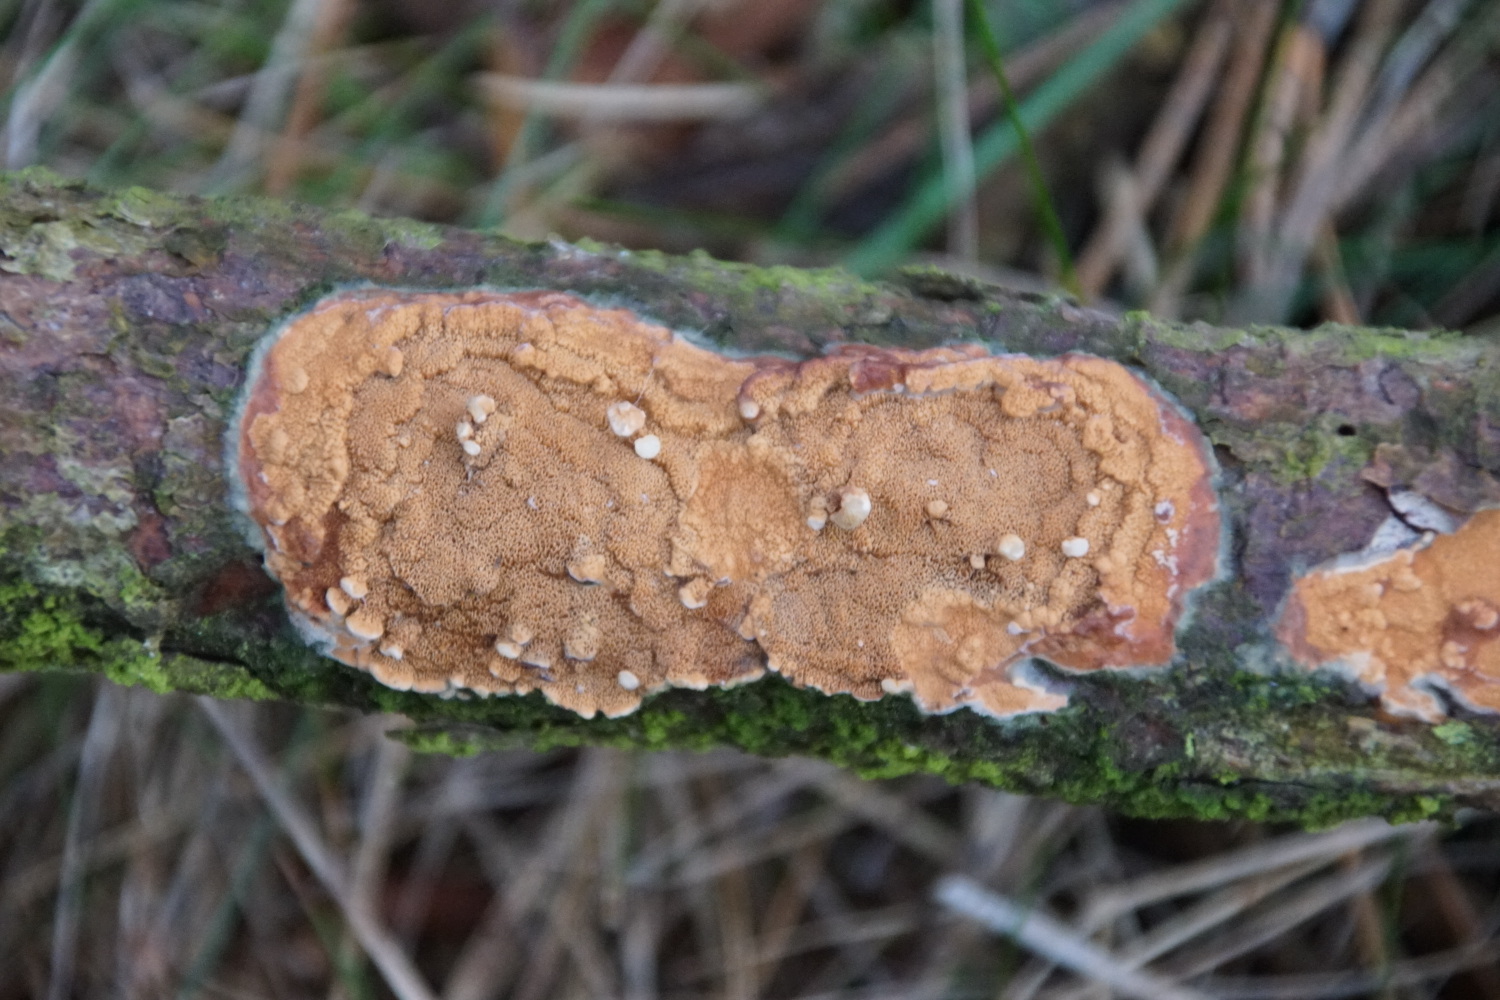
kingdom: Fungi
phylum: Basidiomycota
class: Agaricomycetes
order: Polyporales
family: Irpicaceae
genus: Meruliopsis
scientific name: Meruliopsis taxicola
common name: purpurbrun foldporesvamp
